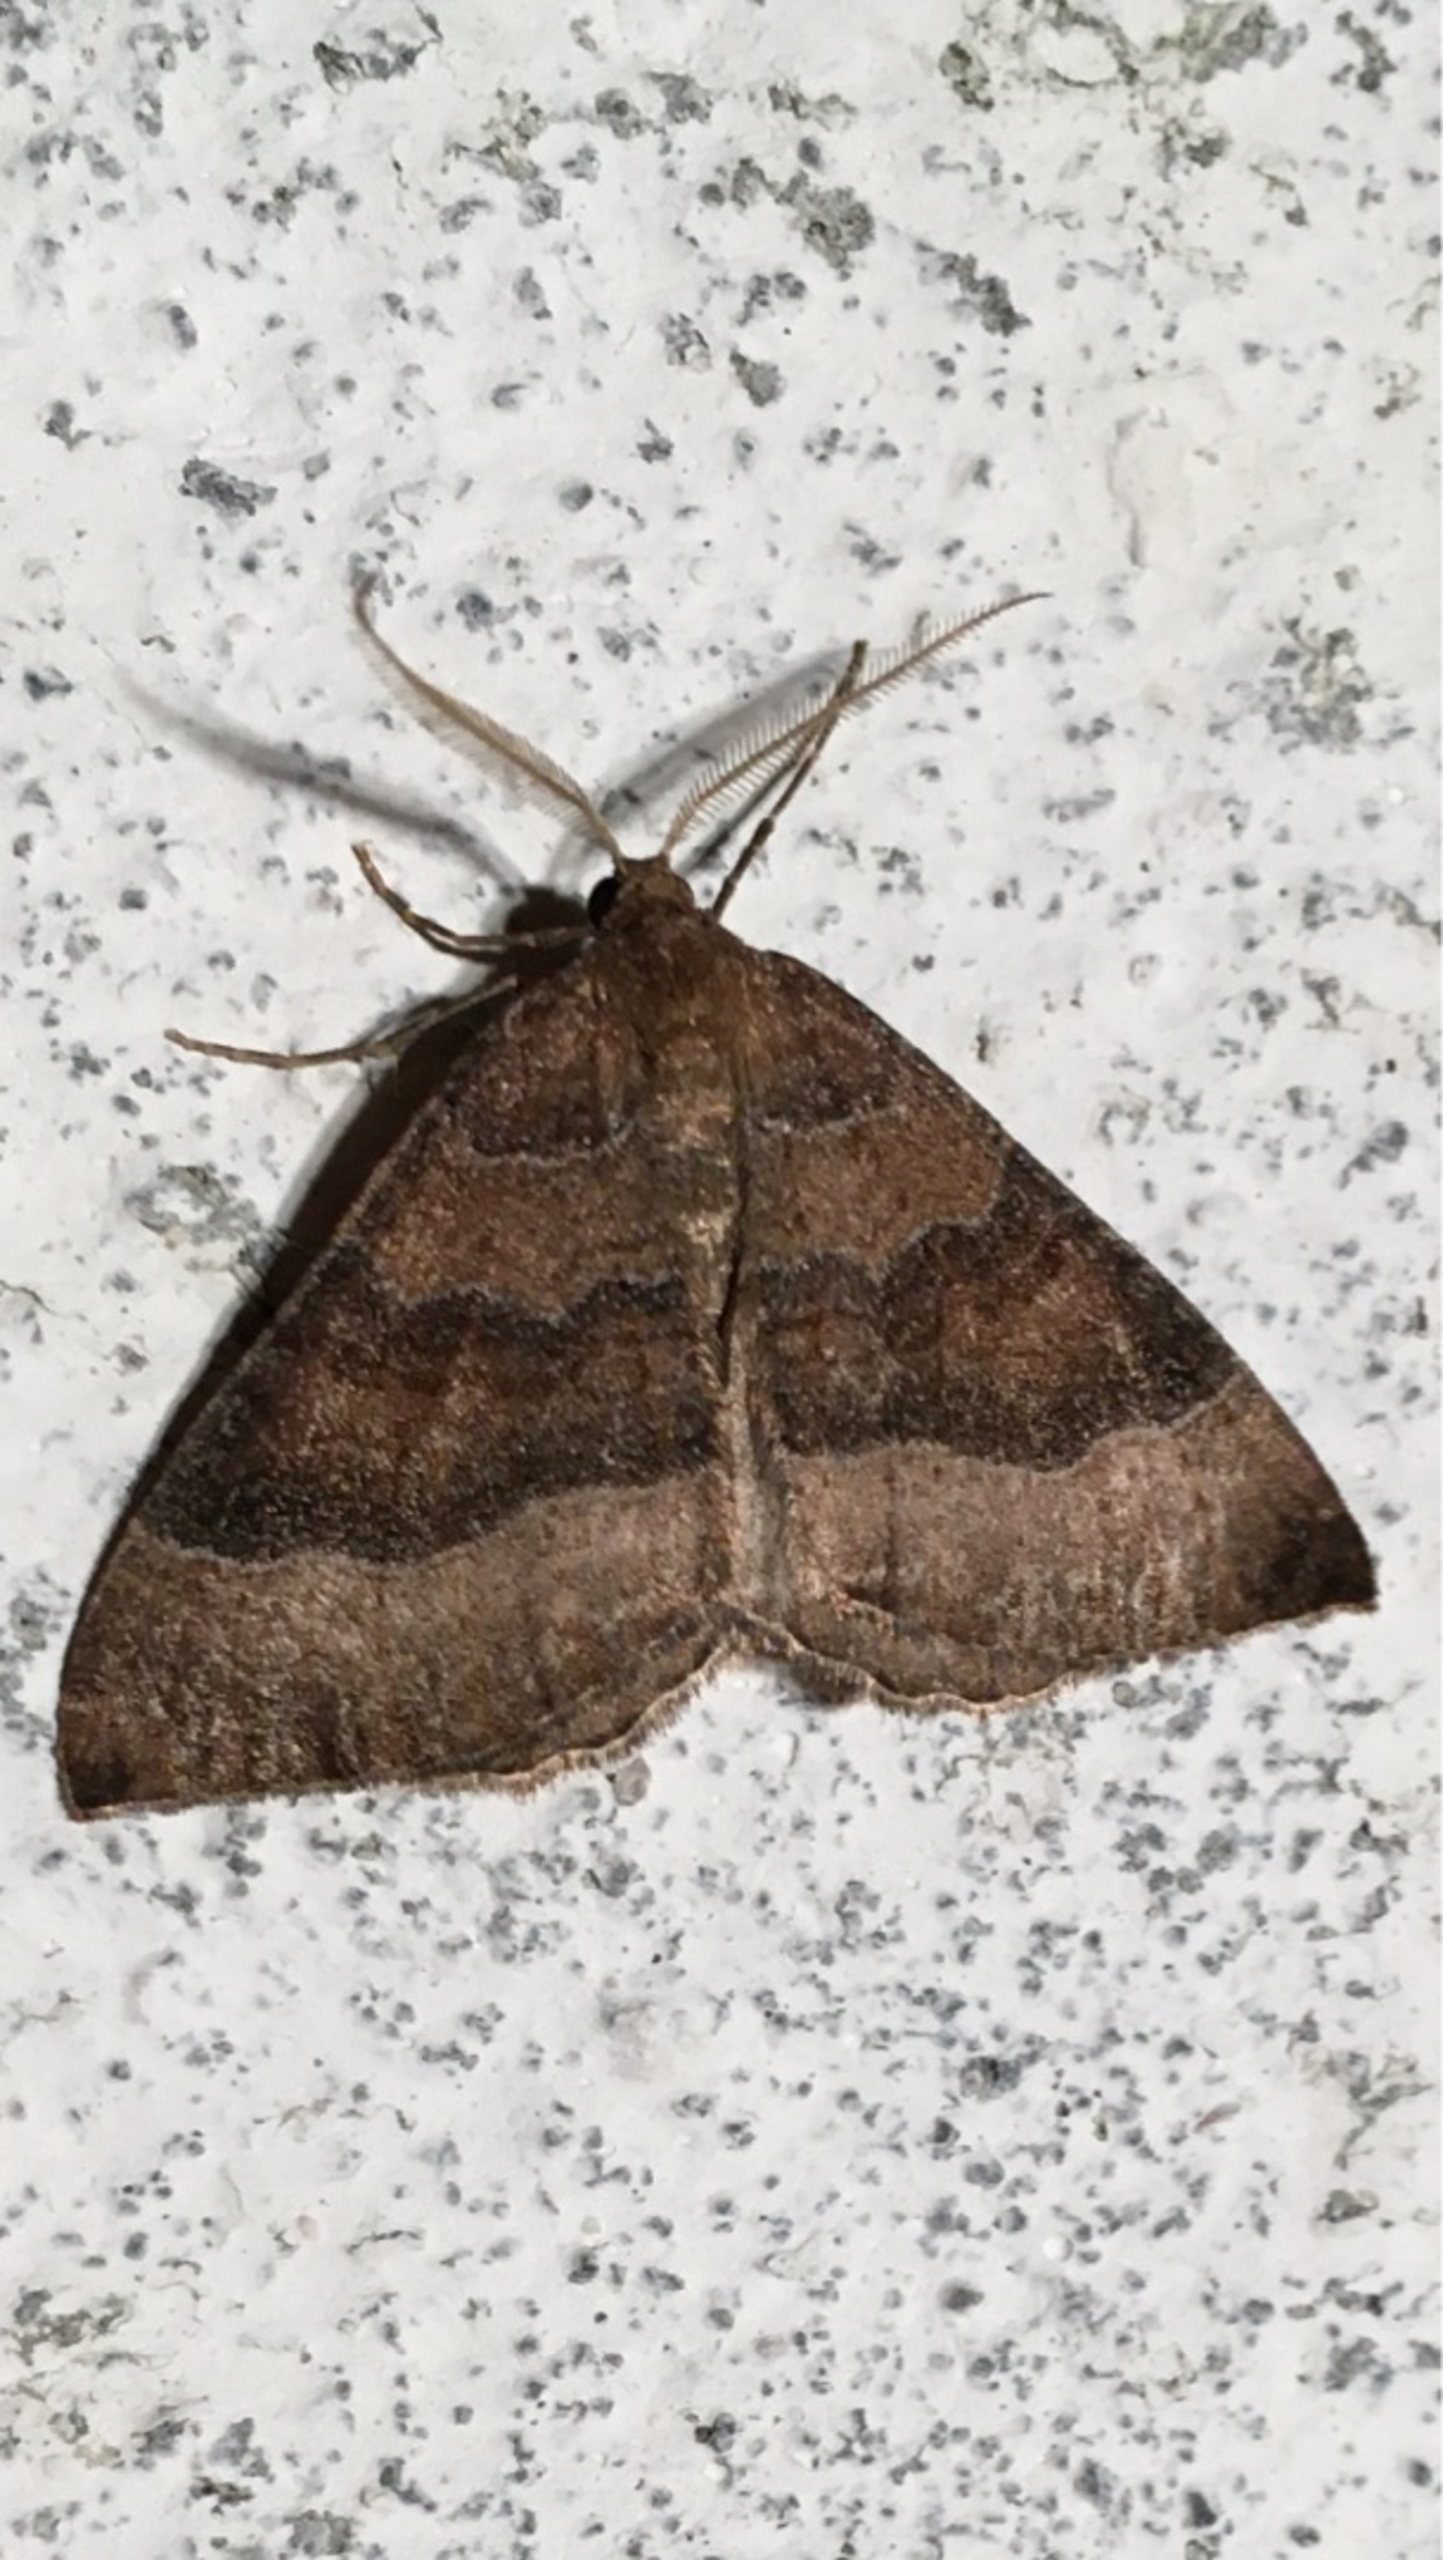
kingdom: Animalia
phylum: Arthropoda
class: Insecta
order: Lepidoptera
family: Geometridae
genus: Larentia
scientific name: Larentia clavaria
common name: Katostmåler
